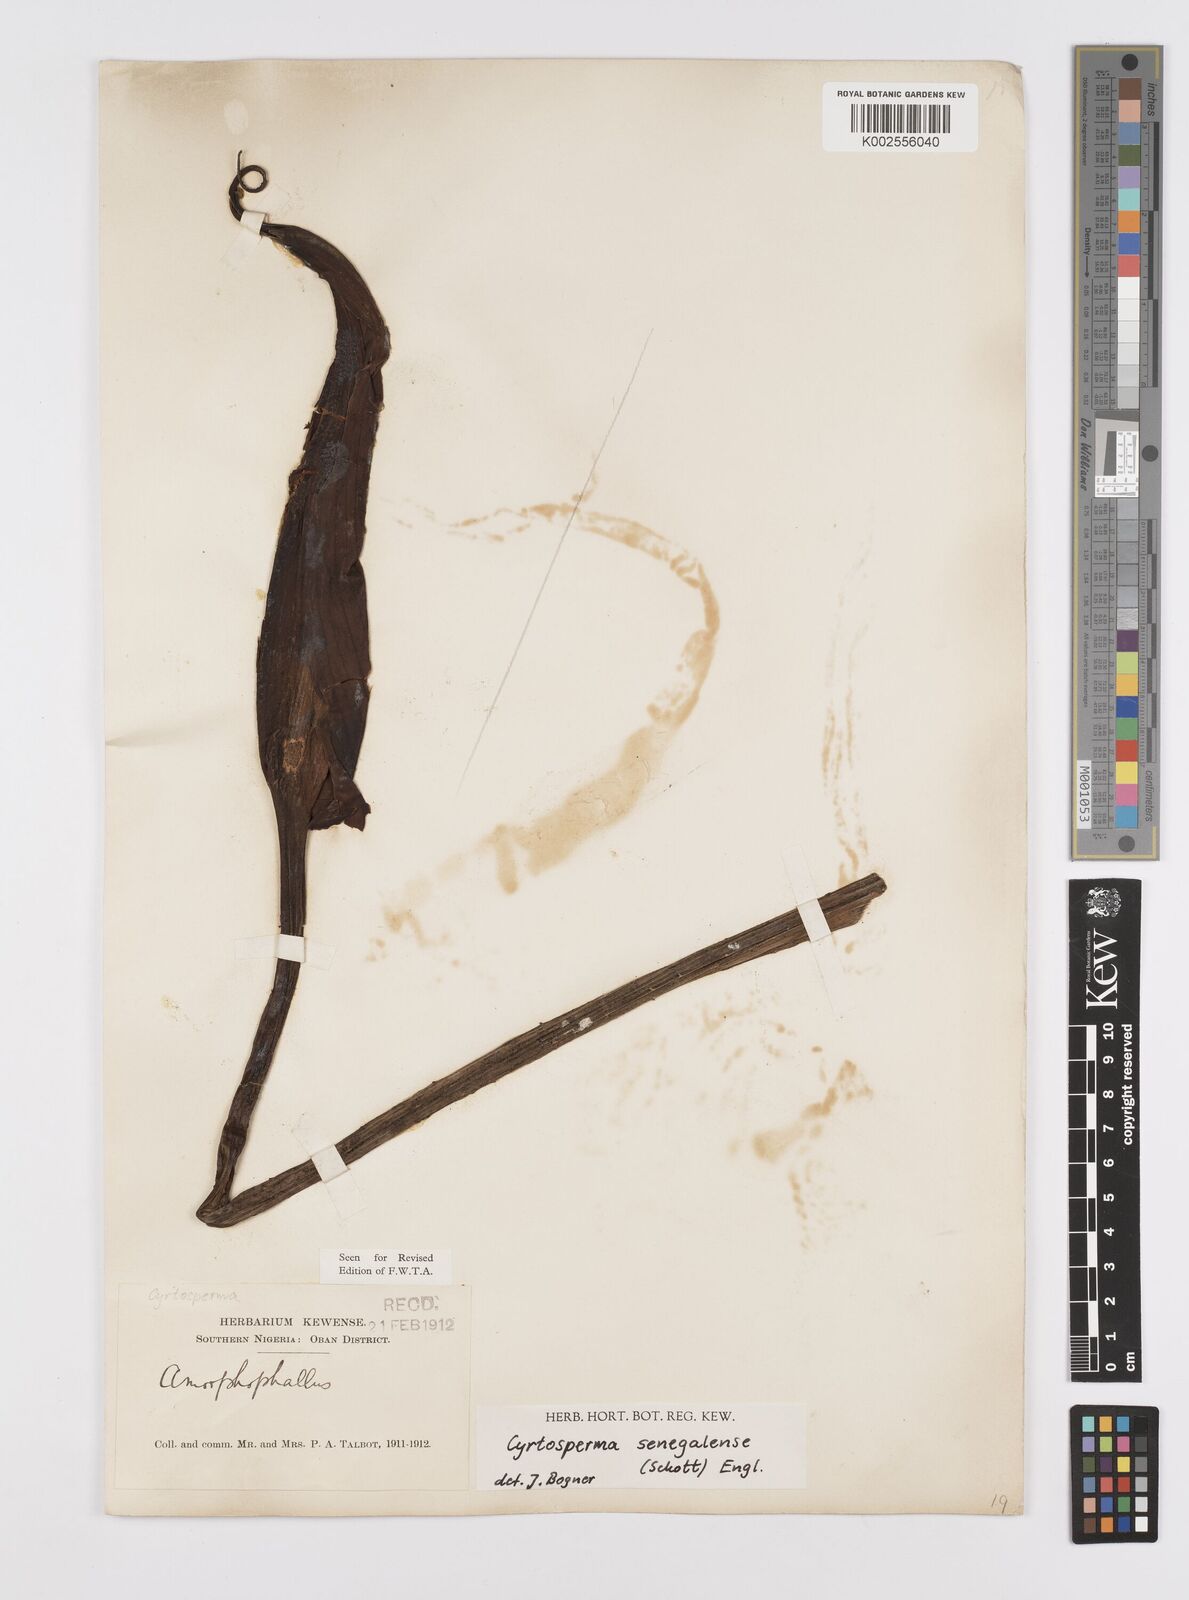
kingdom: Plantae
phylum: Tracheophyta
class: Liliopsida
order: Alismatales
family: Araceae
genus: Lasimorpha
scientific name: Lasimorpha senegalensis
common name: Swamp arum
